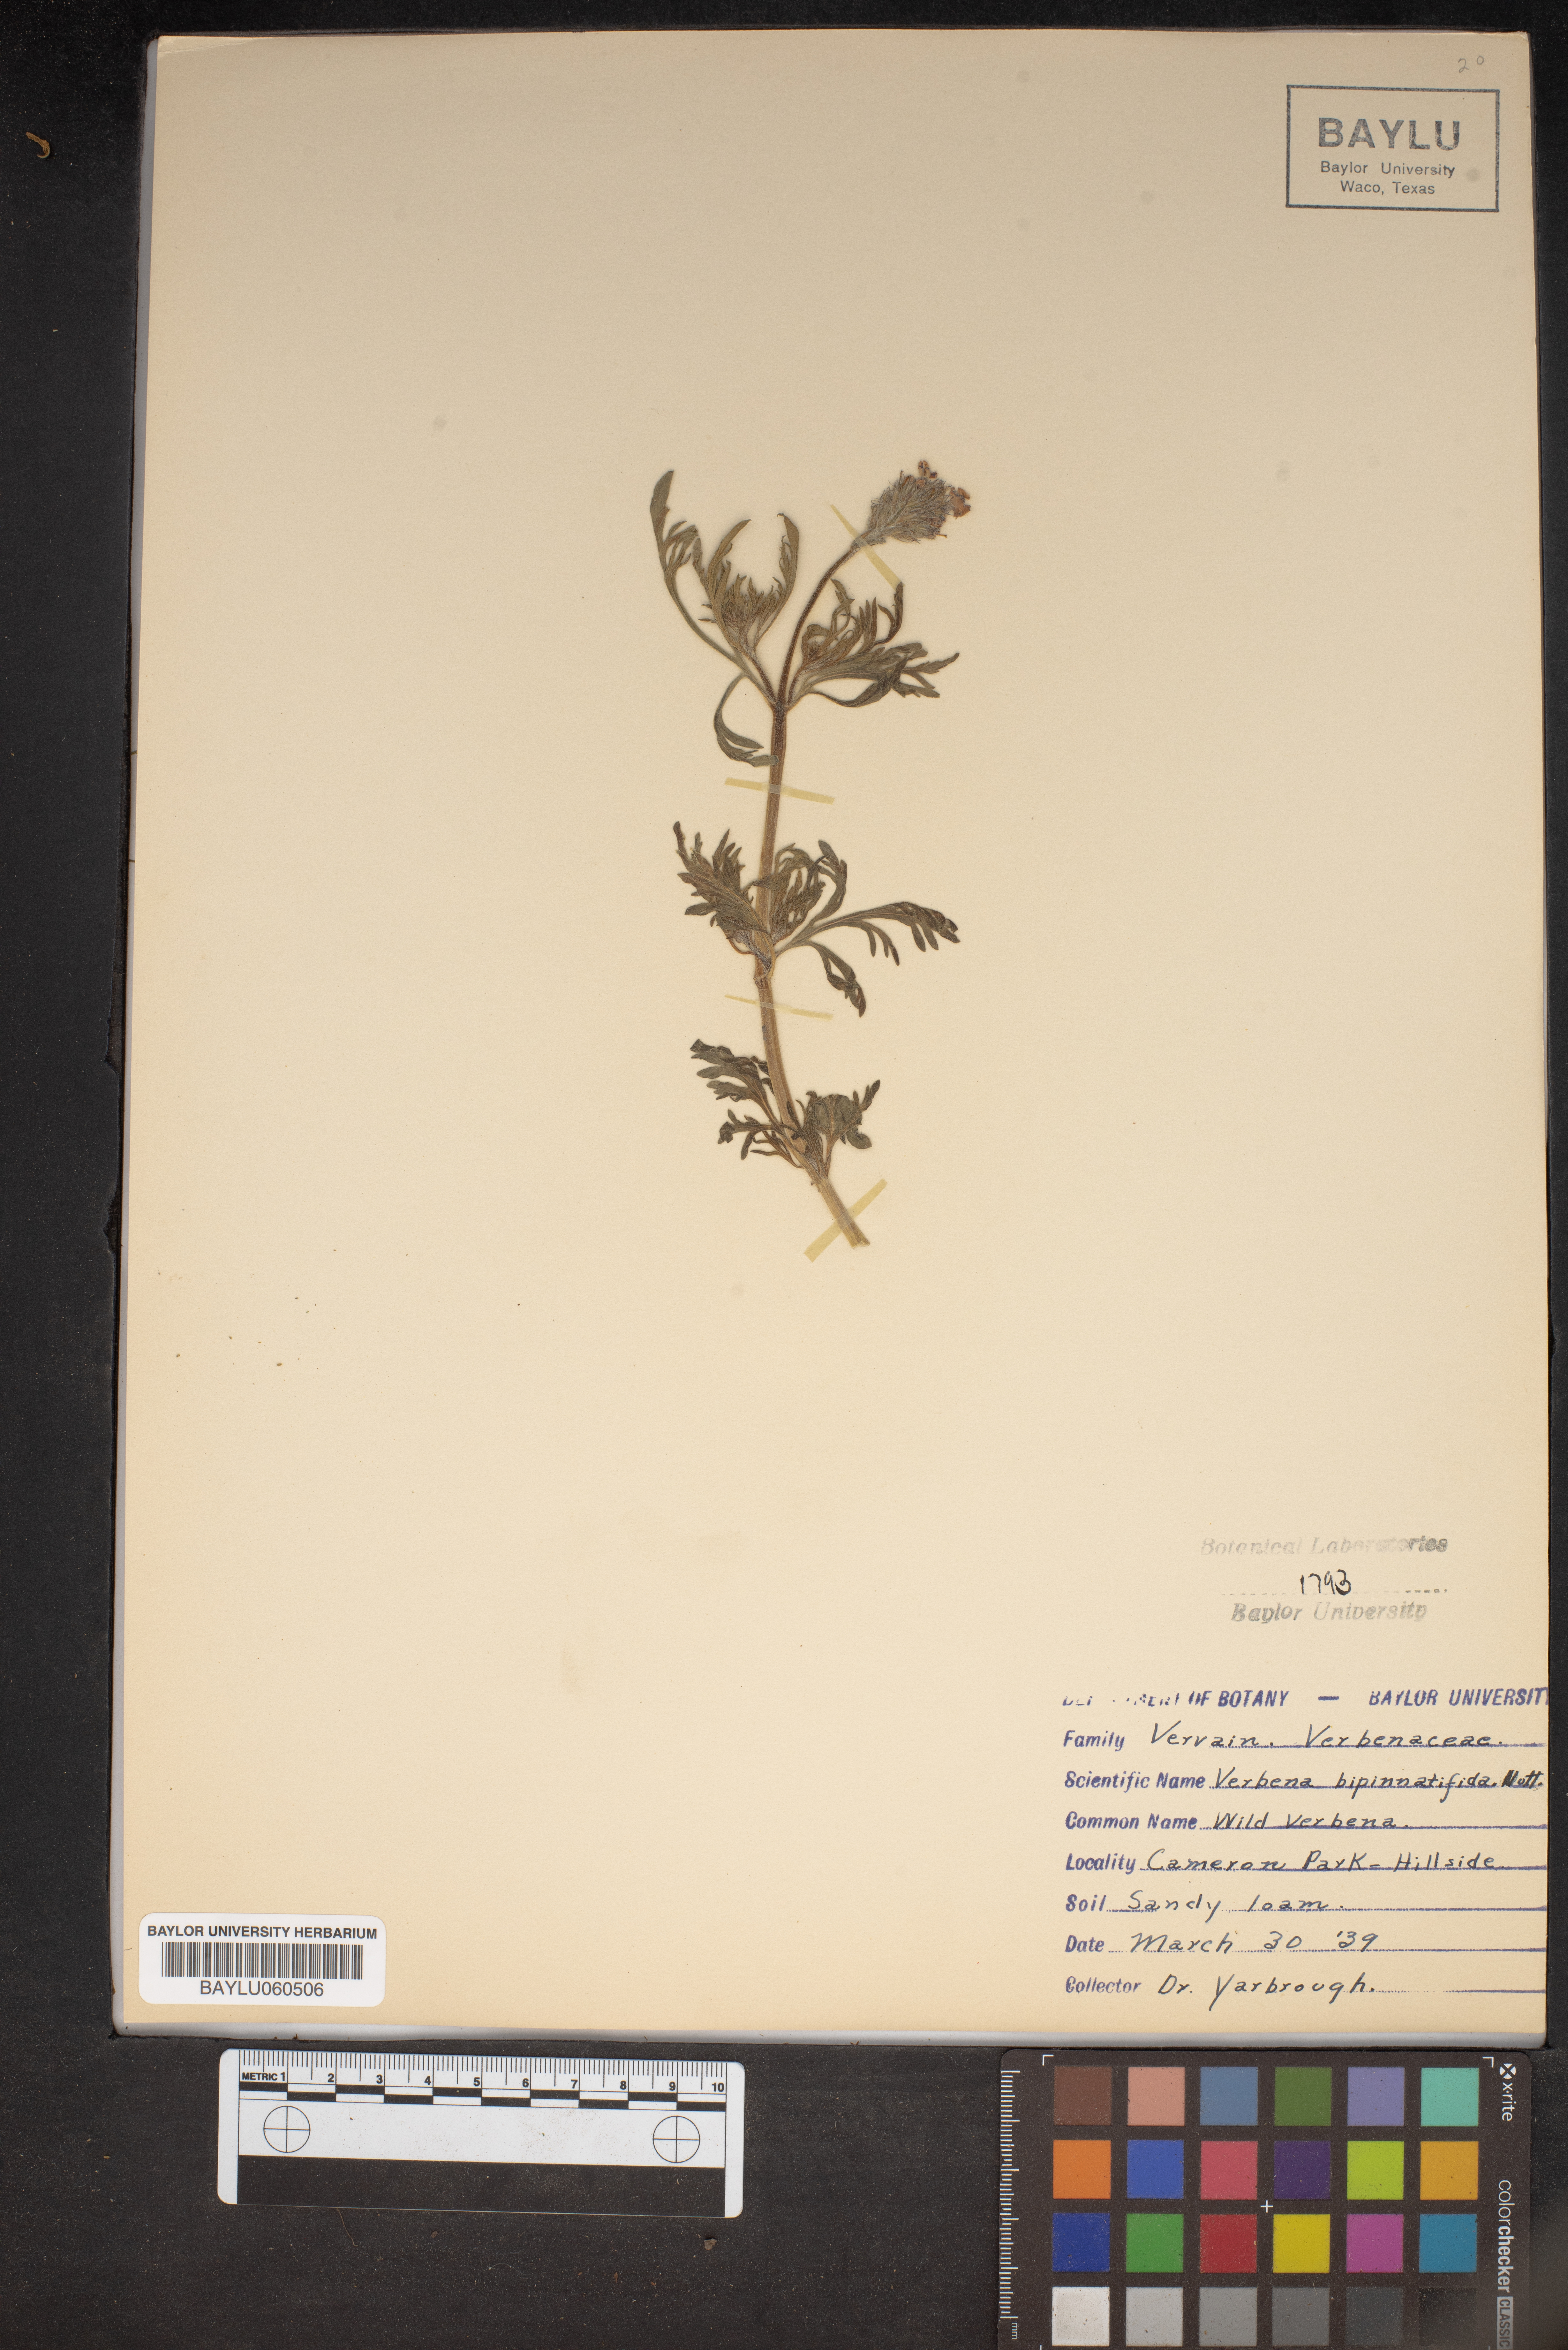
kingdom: Plantae
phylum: Tracheophyta
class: Magnoliopsida
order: Lamiales
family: Verbenaceae
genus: Verbena
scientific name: Verbena bipinnatifida
